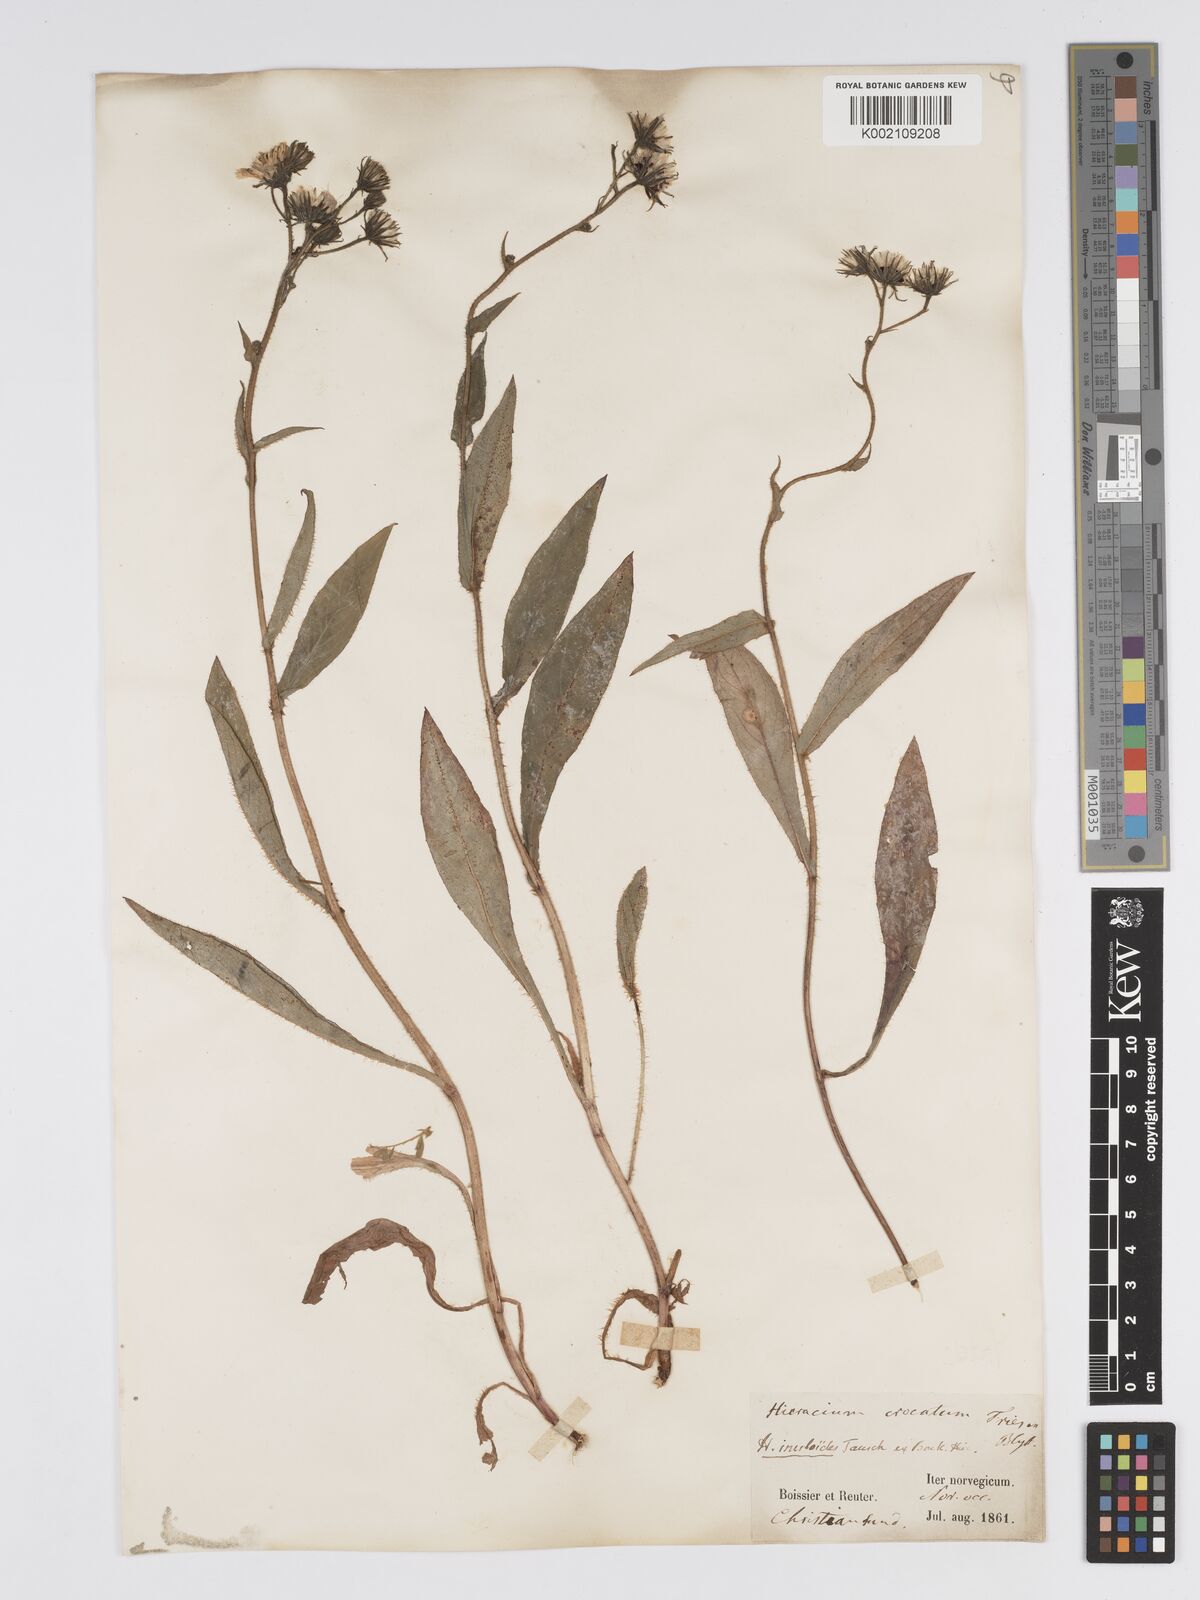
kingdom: Plantae
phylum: Tracheophyta
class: Magnoliopsida
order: Asterales
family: Asteraceae
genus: Hieracium
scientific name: Hieracium sabaudum
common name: New england hawkweed
